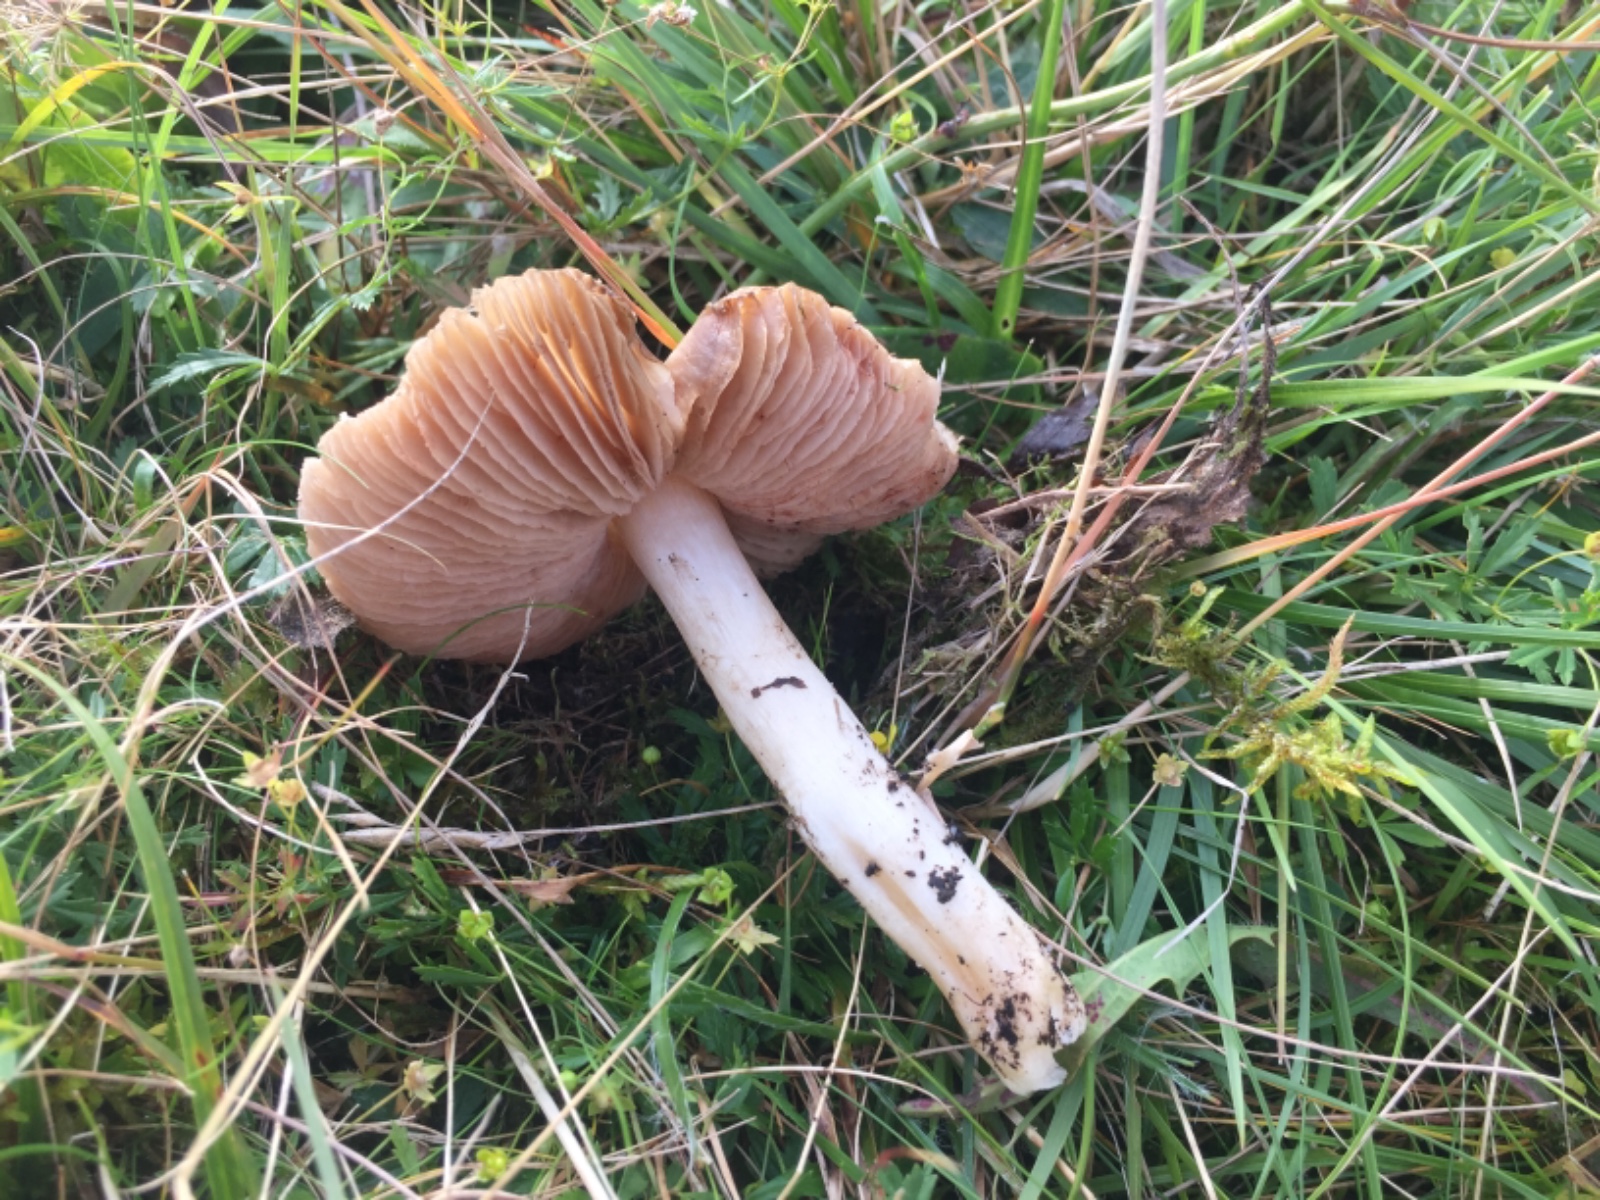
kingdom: Fungi
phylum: Basidiomycota
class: Agaricomycetes
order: Agaricales
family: Entolomataceae
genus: Entoloma
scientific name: Entoloma prunuloides
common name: mel-rødblad
